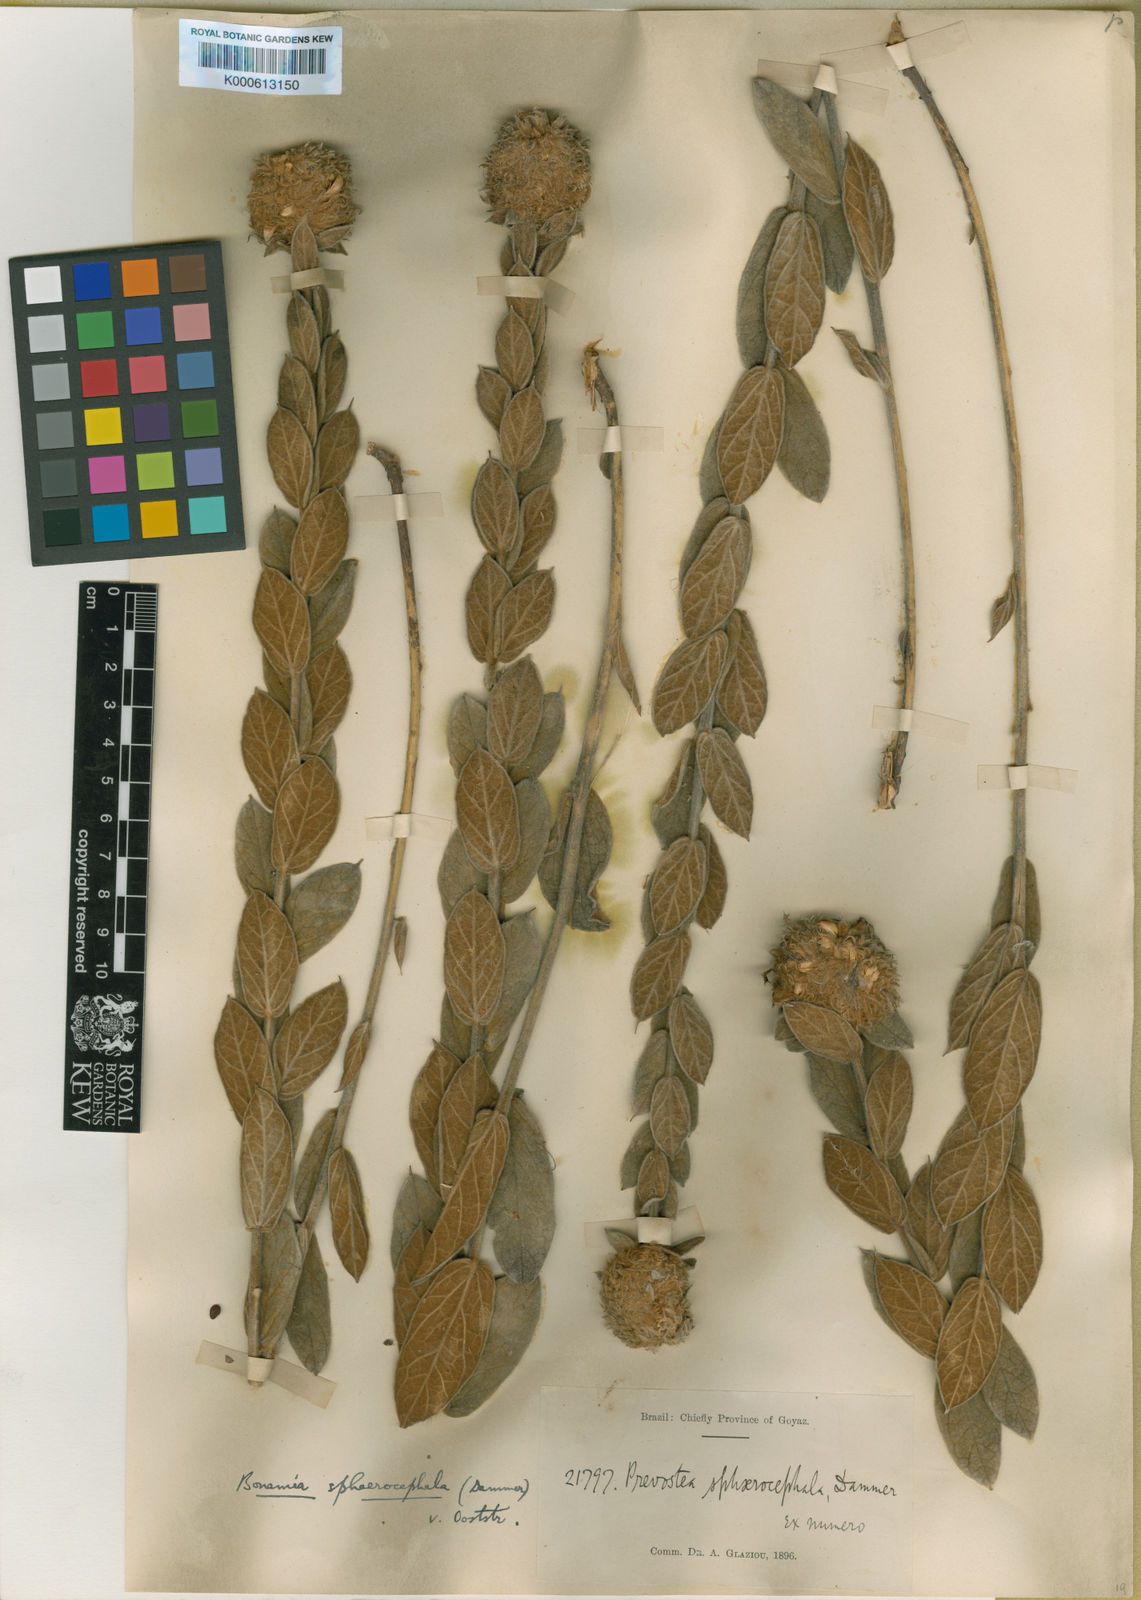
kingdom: Plantae
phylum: Tracheophyta
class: Magnoliopsida
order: Solanales
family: Convolvulaceae
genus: Bonamia
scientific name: Bonamia sphaerocephala
